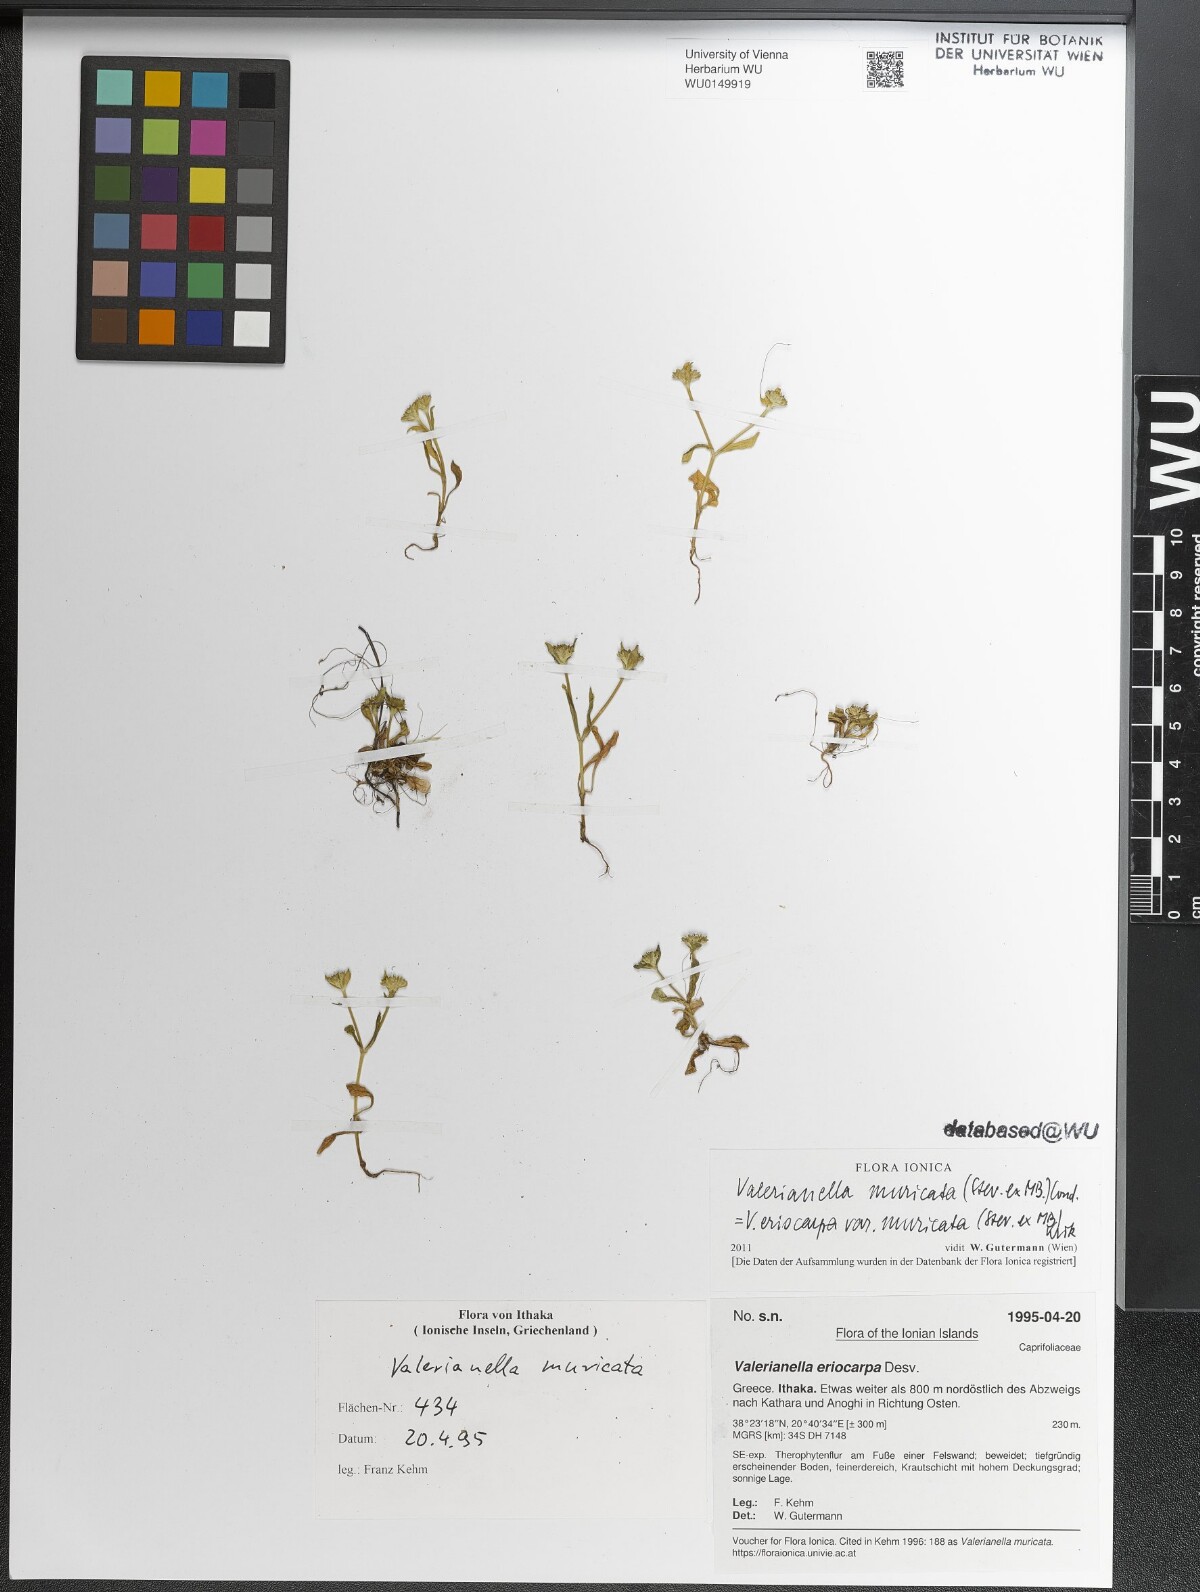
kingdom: Plantae
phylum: Tracheophyta
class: Magnoliopsida
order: Dipsacales
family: Caprifoliaceae
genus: Valerianella
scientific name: Valerianella eriocarpa
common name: Hairy-fruited cornsalad
